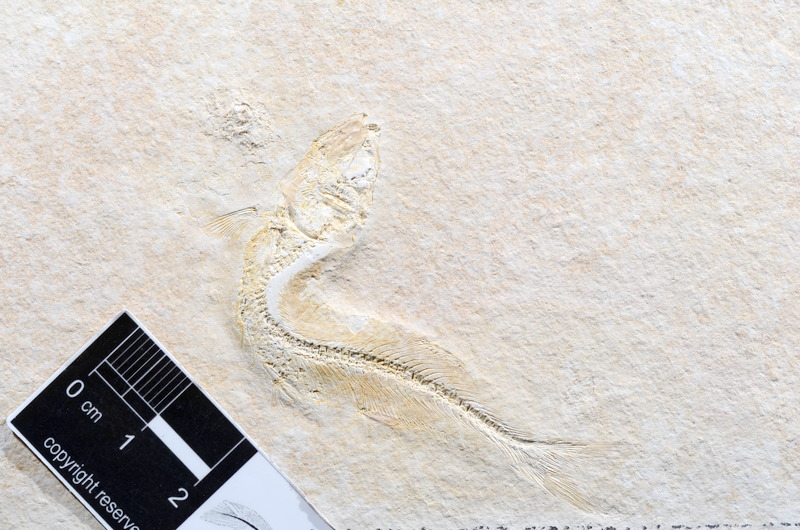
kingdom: Animalia
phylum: Chordata
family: Allothrissopidae
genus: Allothrissops
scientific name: Allothrissops mesogaster
